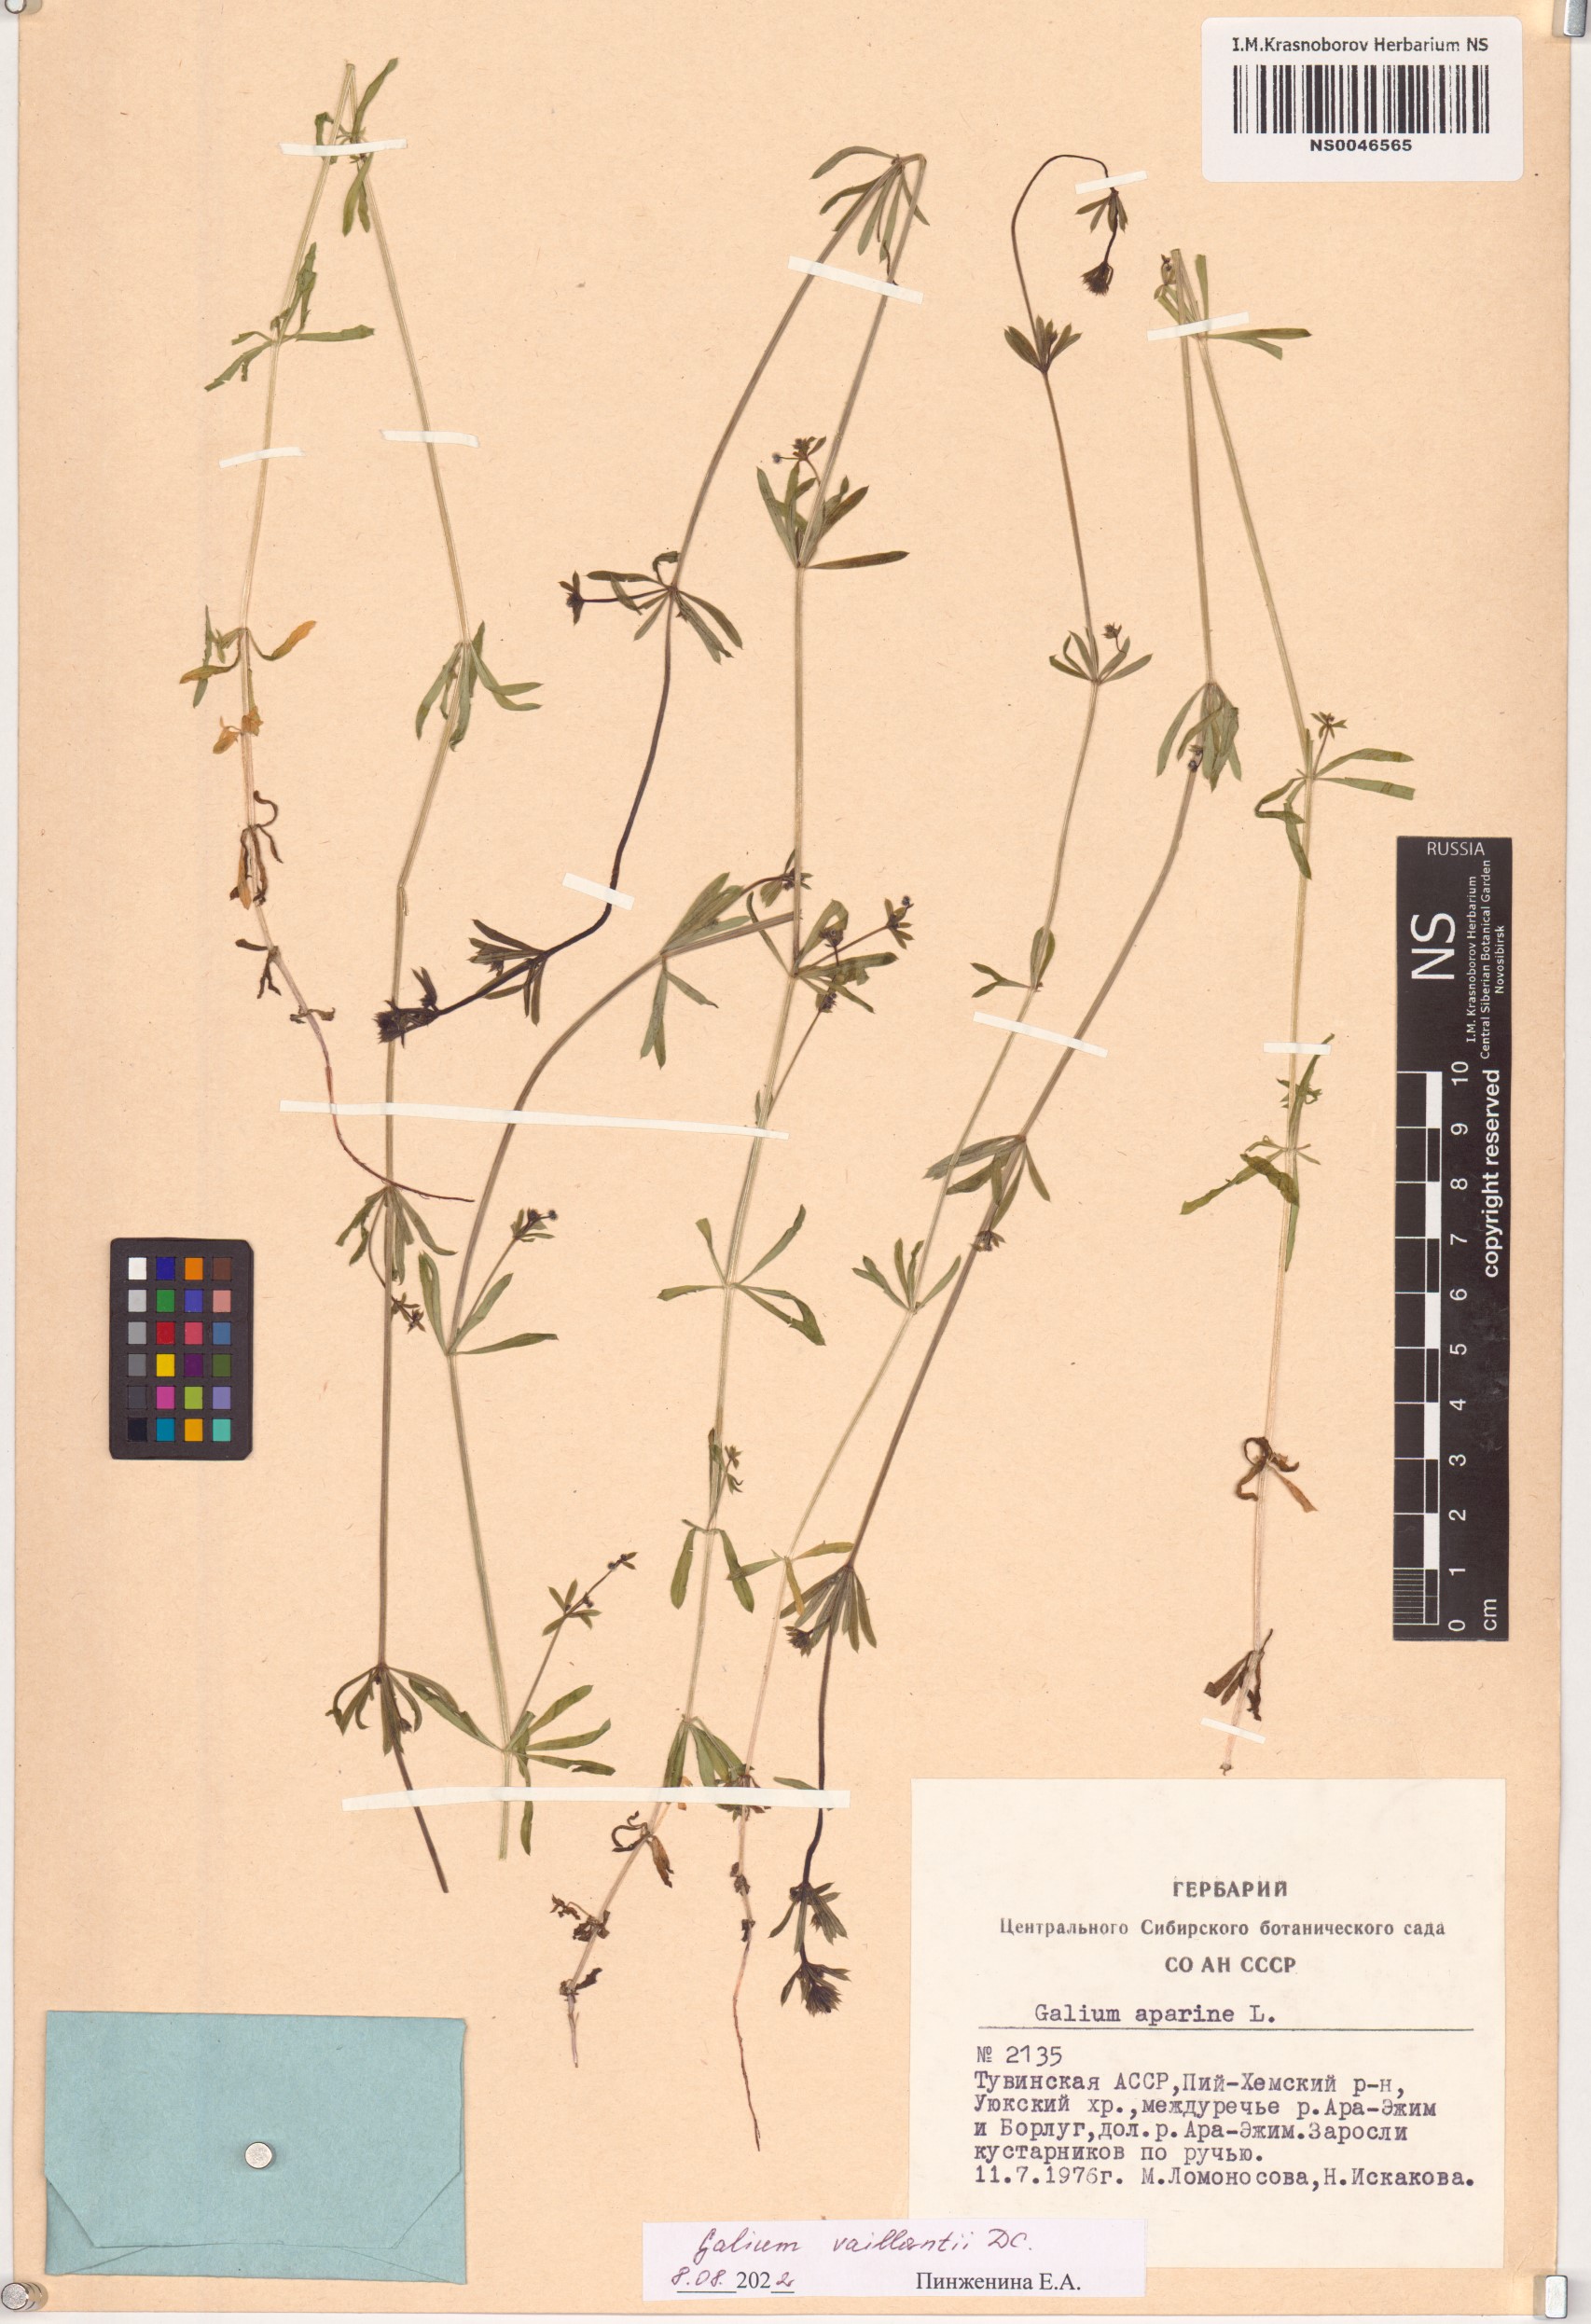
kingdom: Plantae
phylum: Tracheophyta
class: Magnoliopsida
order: Gentianales
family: Rubiaceae
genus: Galium
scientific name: Galium spurium
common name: False cleavers
